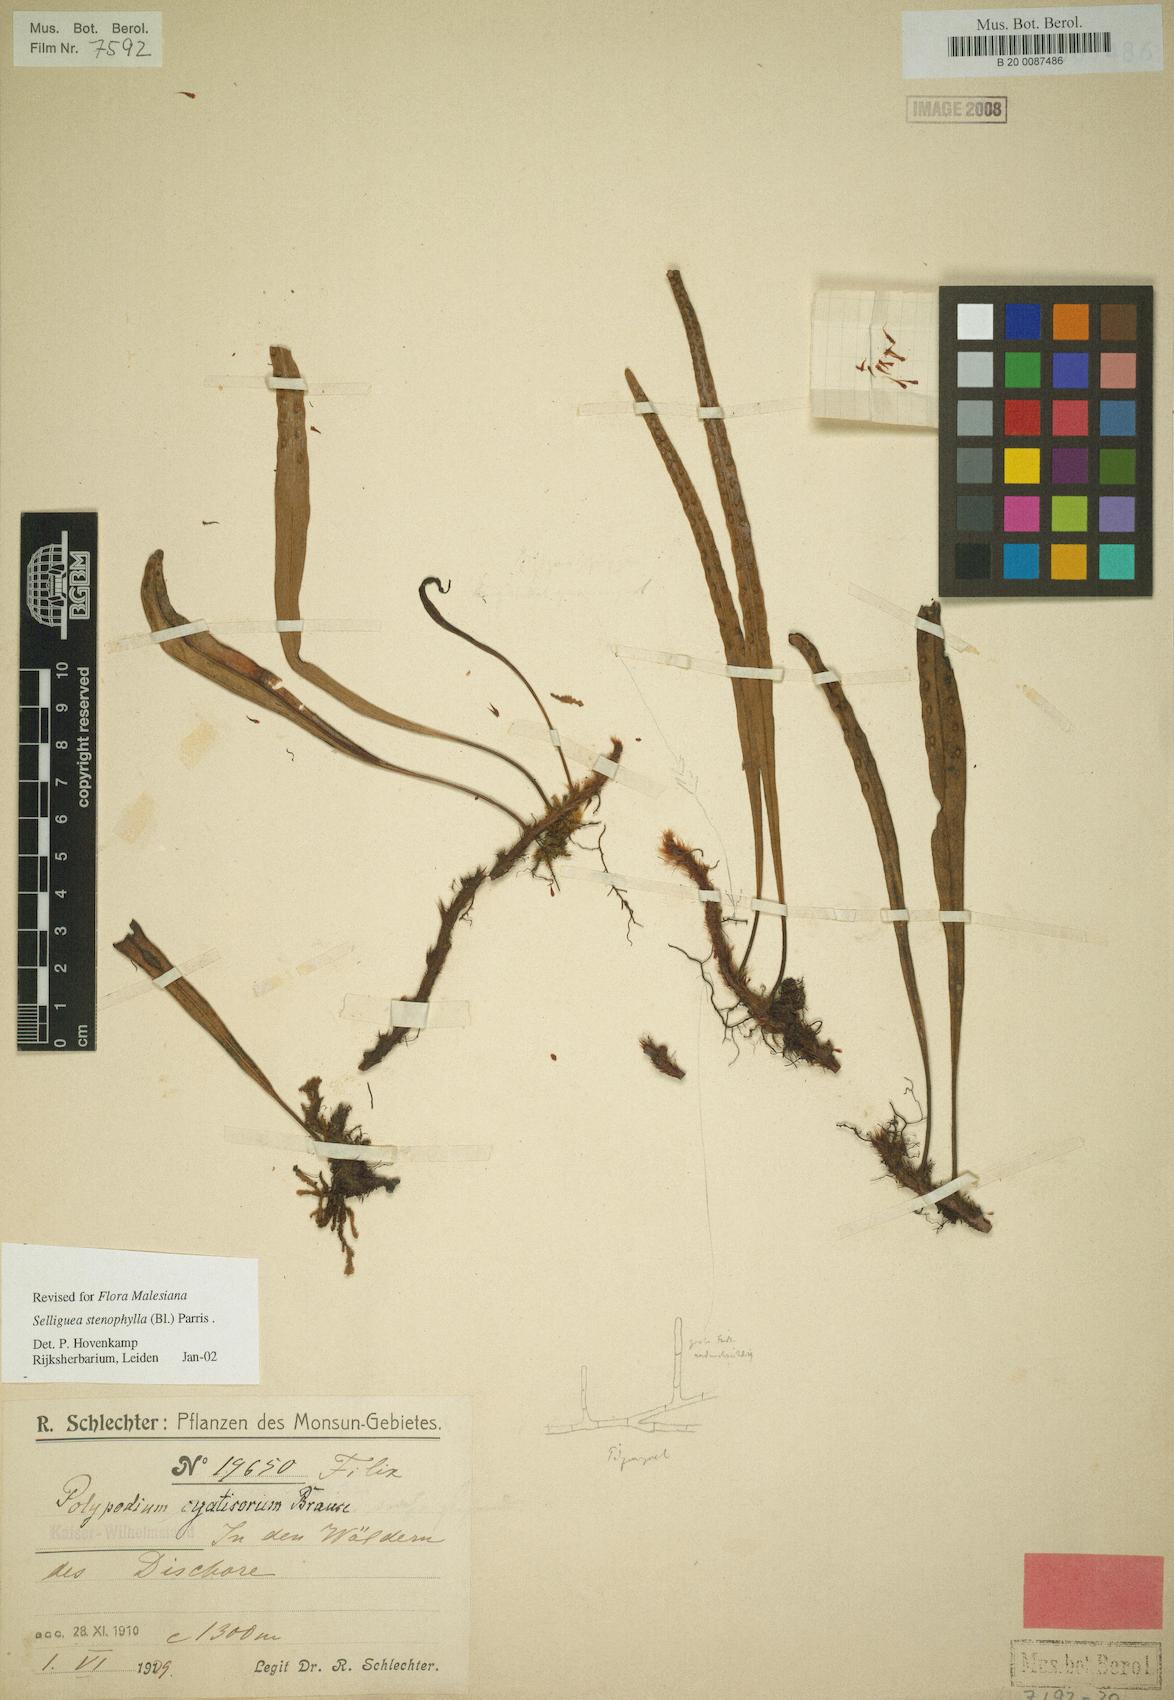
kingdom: Plantae
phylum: Tracheophyta
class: Polypodiopsida
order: Polypodiales
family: Polypodiaceae
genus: Selliguea
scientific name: Selliguea stenophylla
